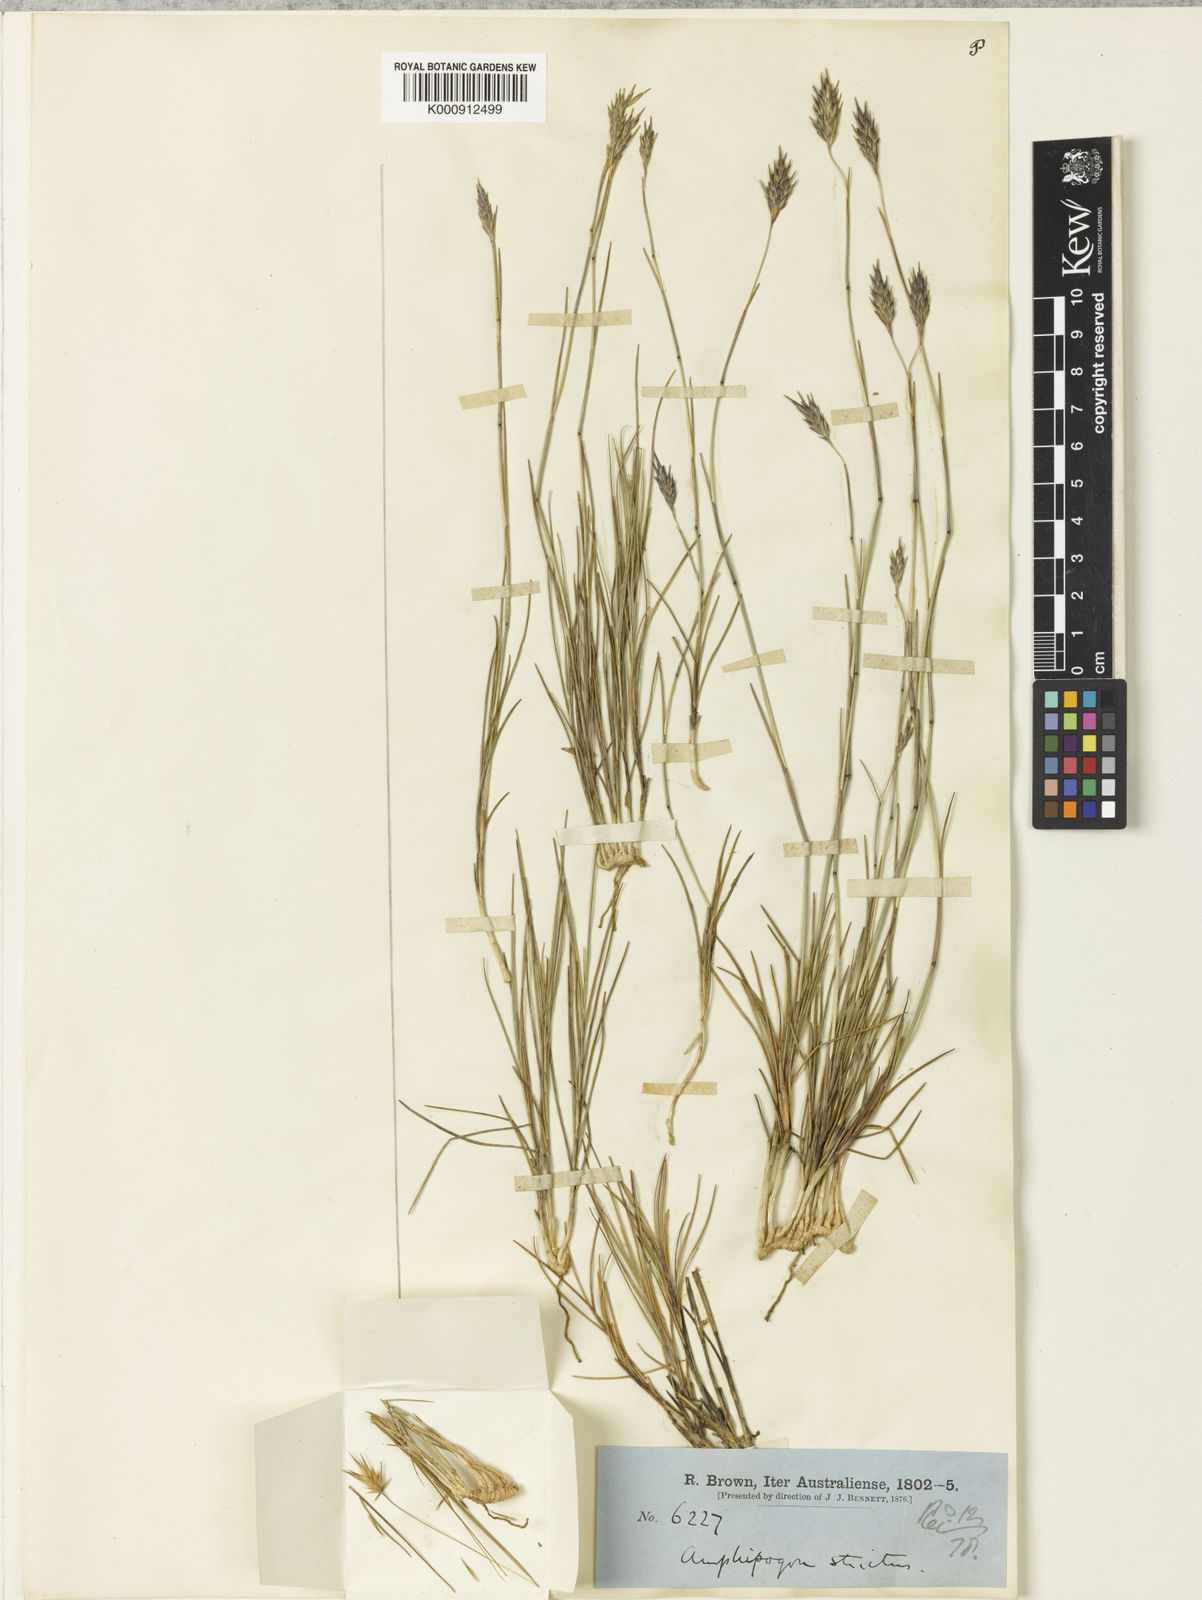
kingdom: Plantae
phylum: Tracheophyta
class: Liliopsida
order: Poales
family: Poaceae
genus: Amphipogon
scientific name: Amphipogon strictus
